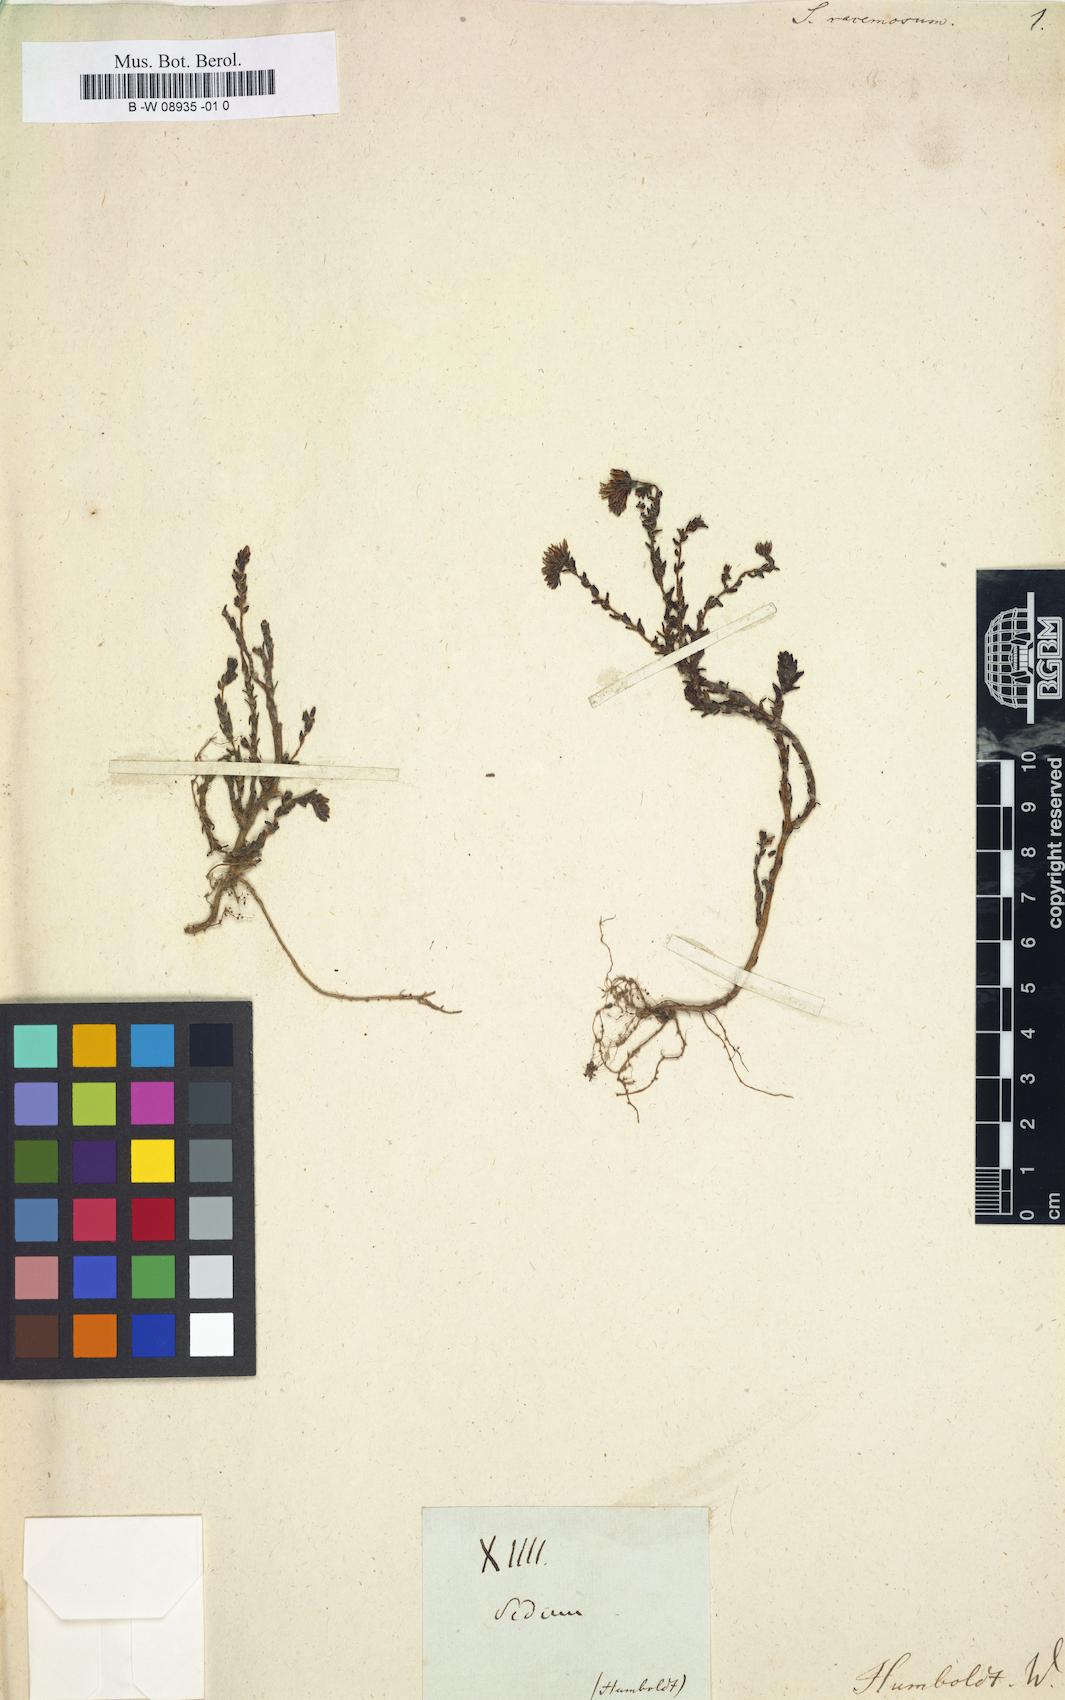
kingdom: Plantae
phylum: Tracheophyta
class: Magnoliopsida
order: Saxifragales
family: Crassulaceae
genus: Rosularia
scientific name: Rosularia sempervivum
